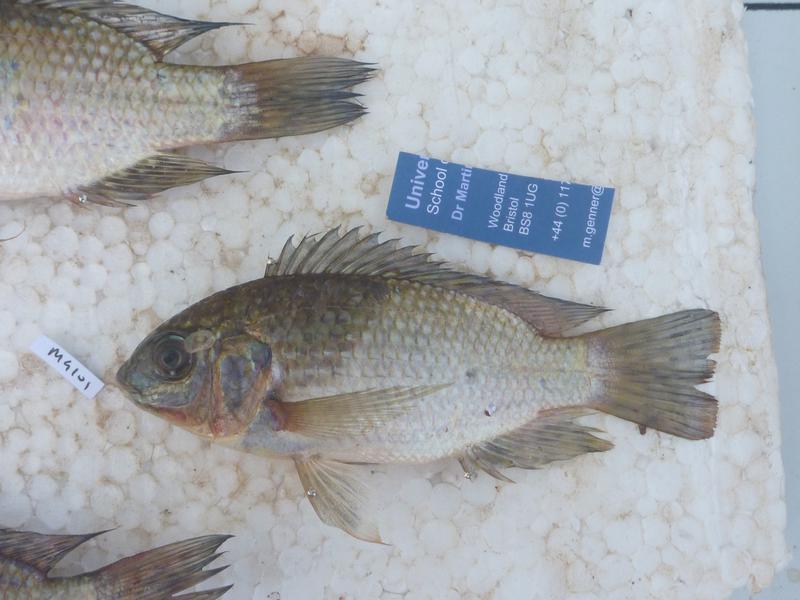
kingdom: Animalia
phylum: Chordata
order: Perciformes
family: Cichlidae
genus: Oreochromis
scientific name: Oreochromis leucostictus
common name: Blue spotted tilapia
